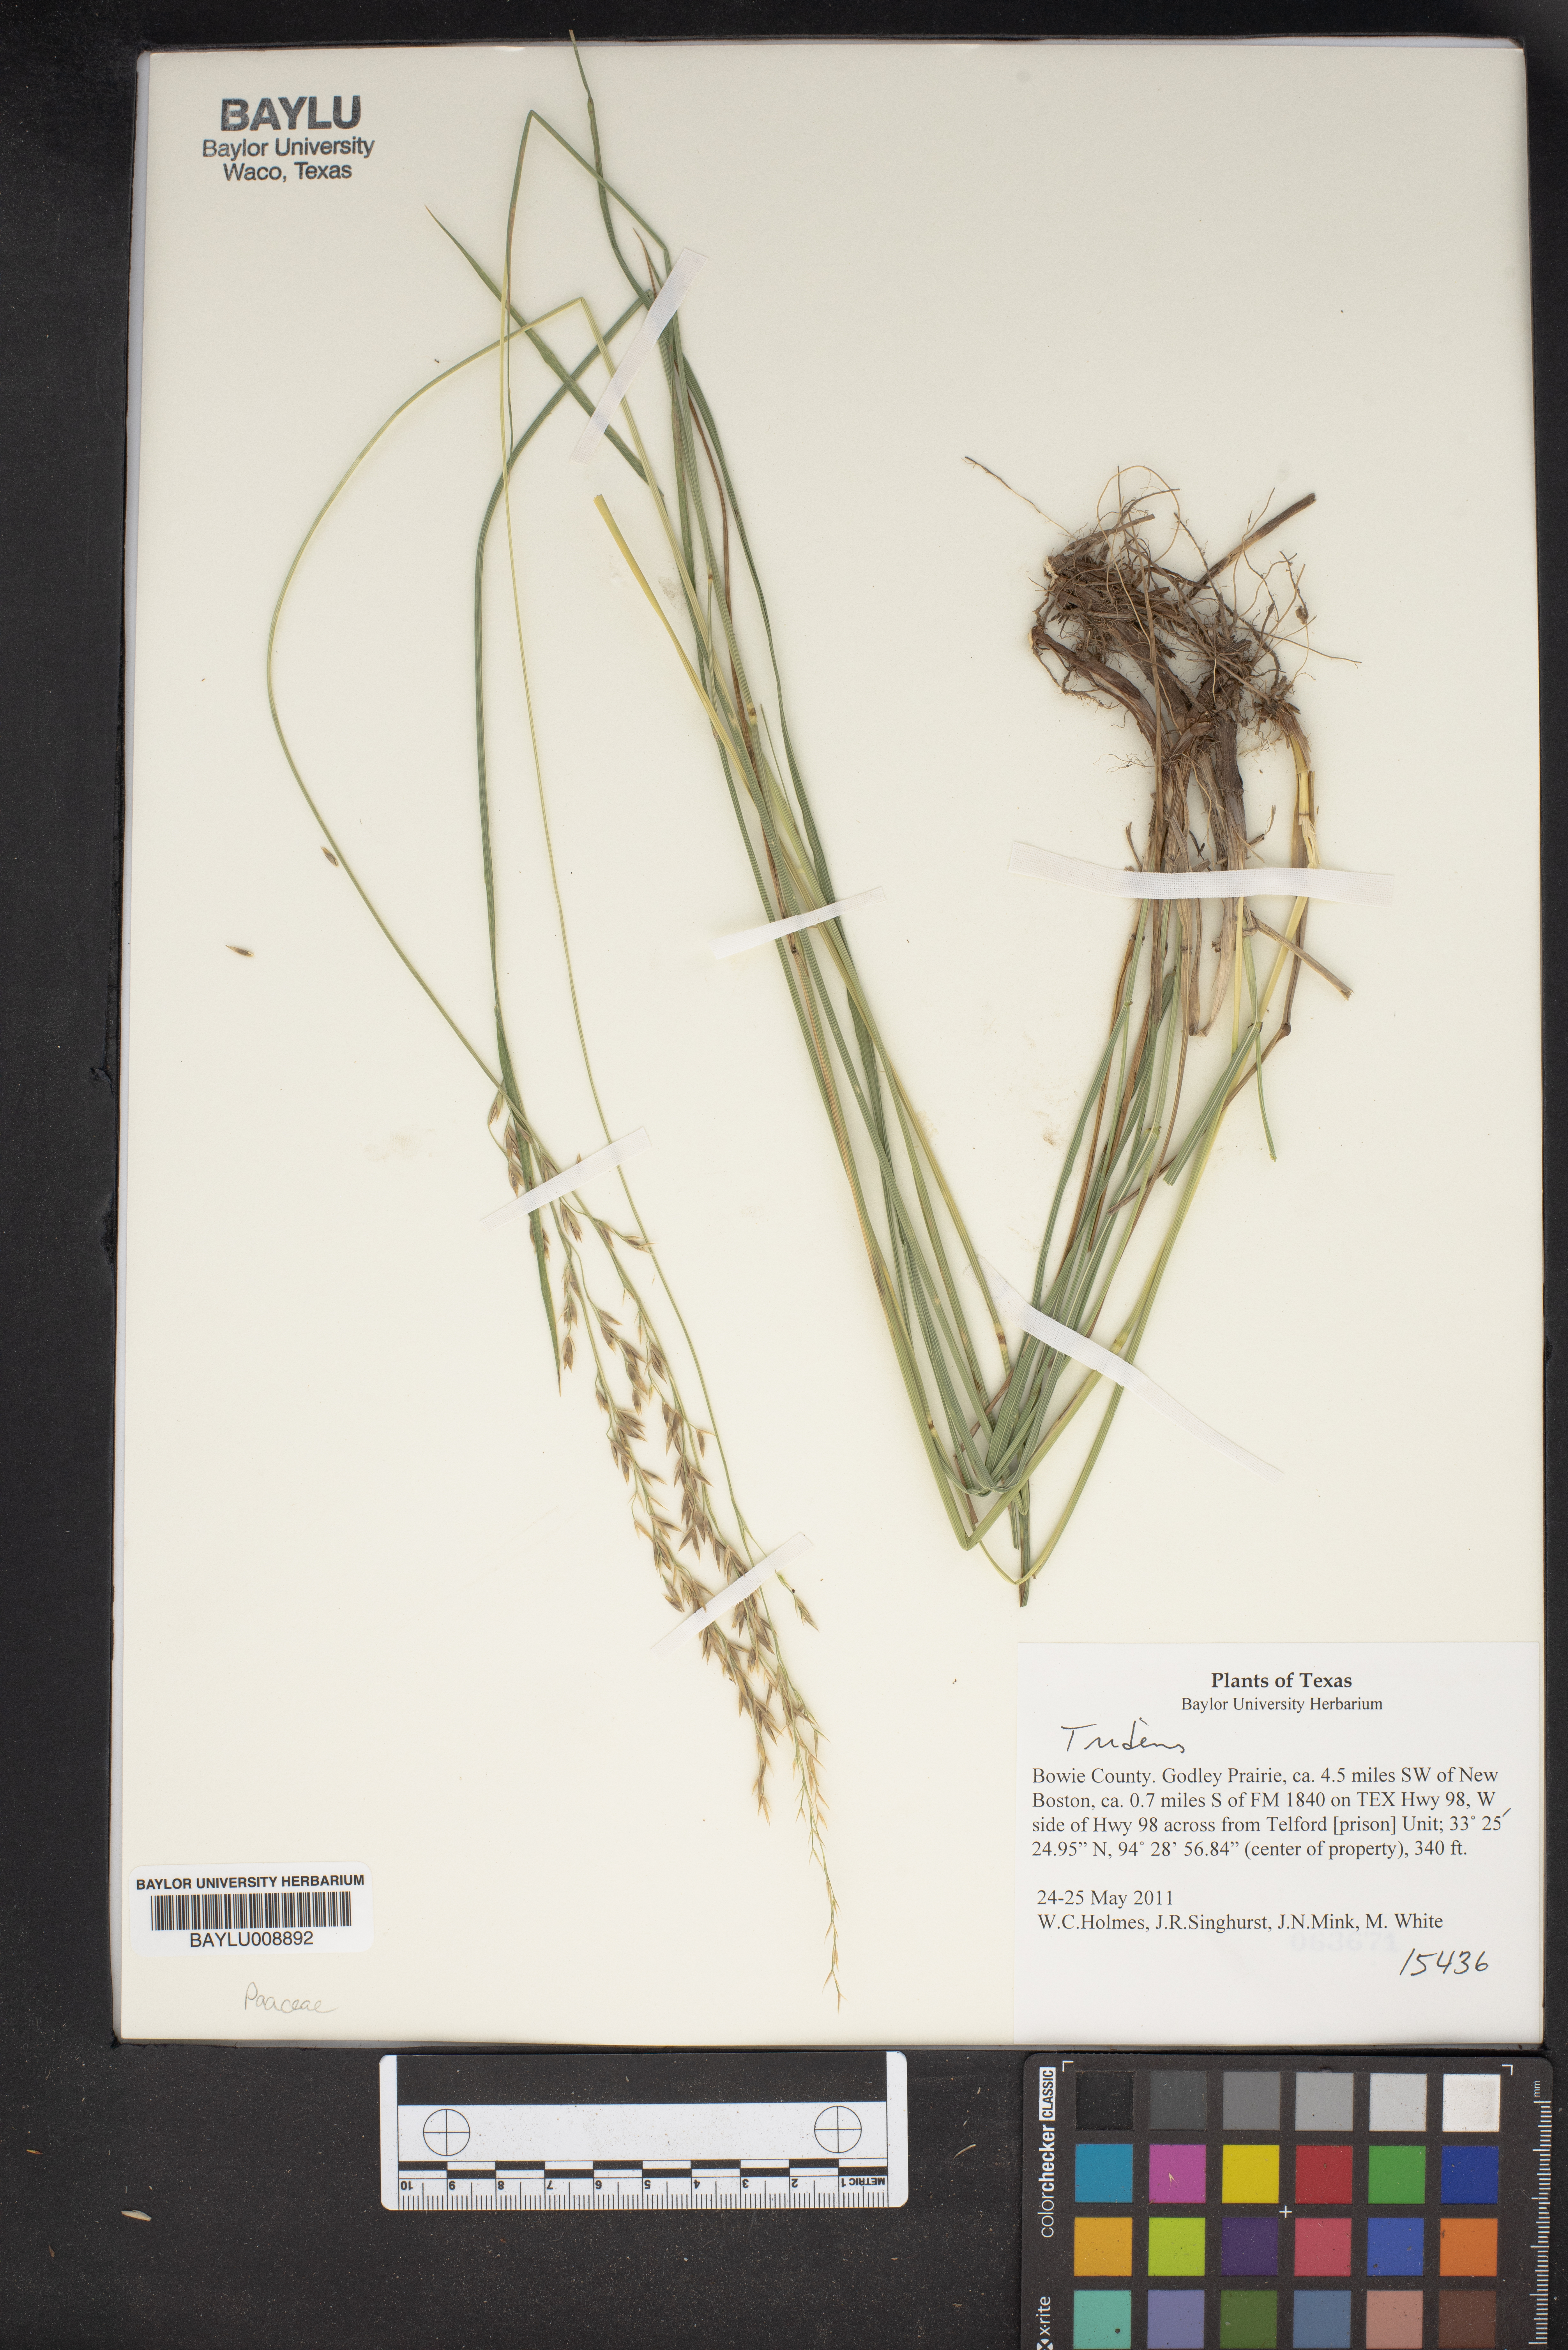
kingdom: Plantae
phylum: Tracheophyta
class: Liliopsida
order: Poales
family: Poaceae
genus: Tridens
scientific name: Tridens
